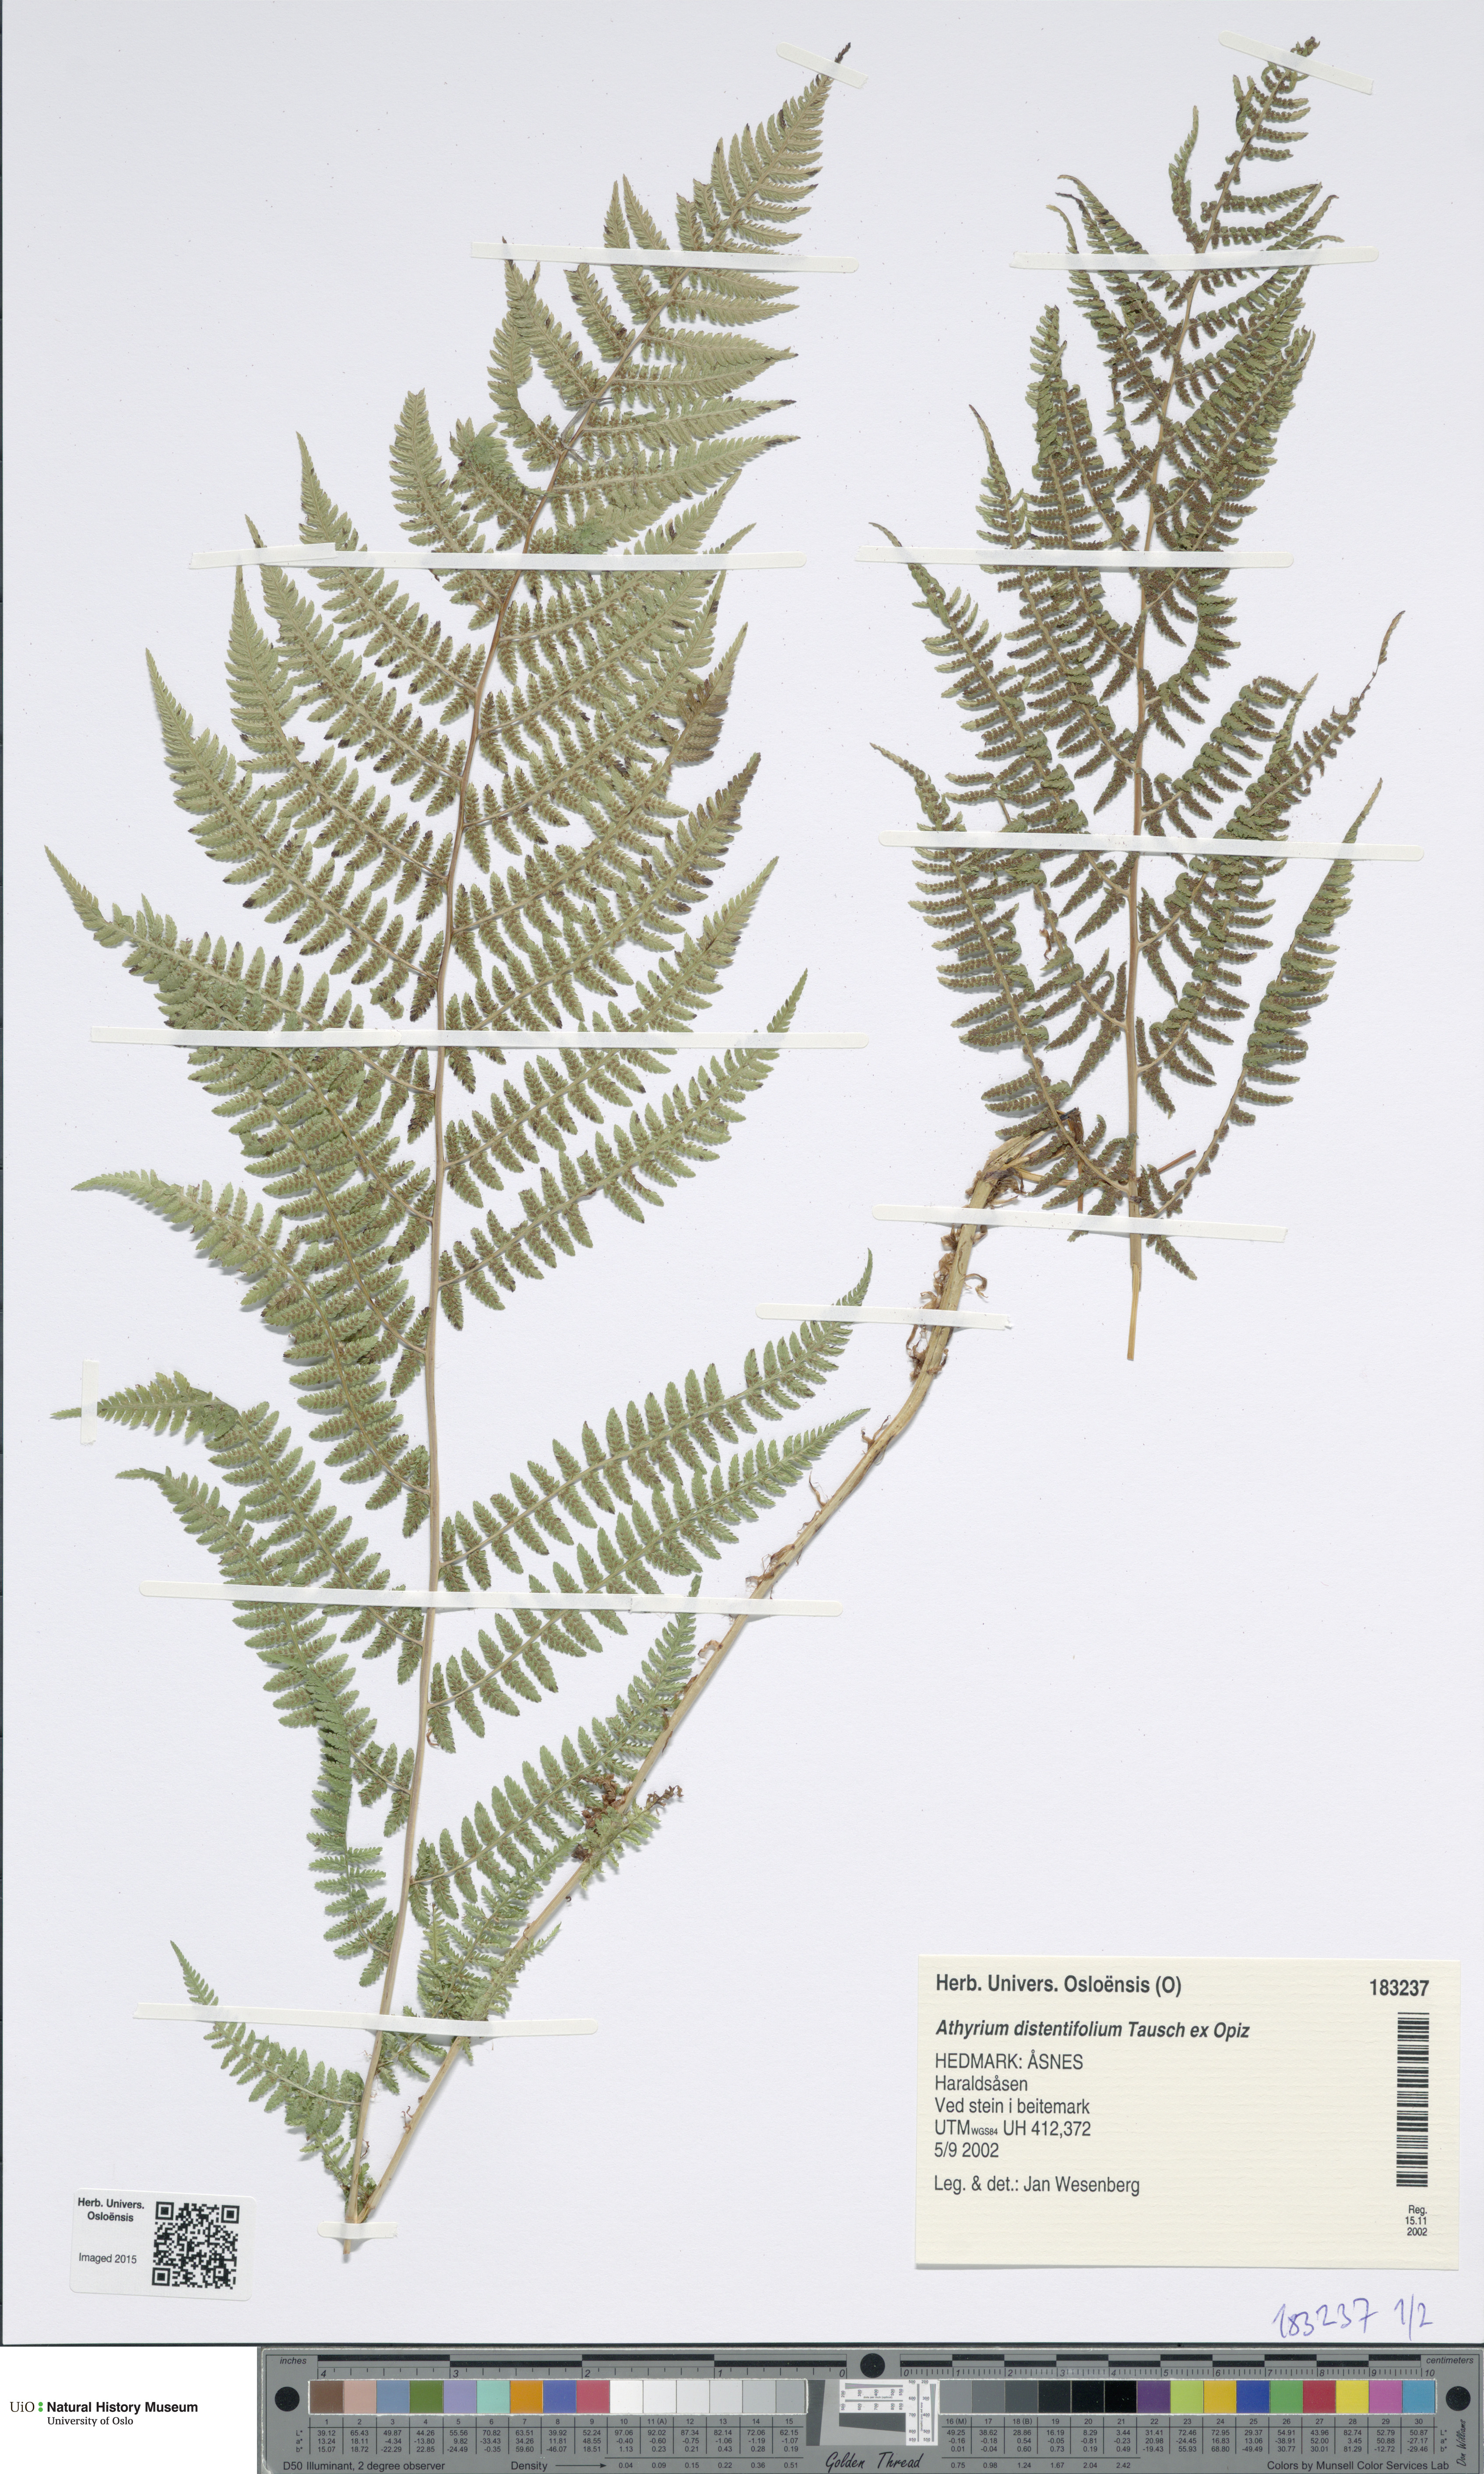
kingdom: Plantae
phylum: Tracheophyta
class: Polypodiopsida
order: Polypodiales
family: Athyriaceae
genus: Pseudathyrium
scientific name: Pseudathyrium alpestre
